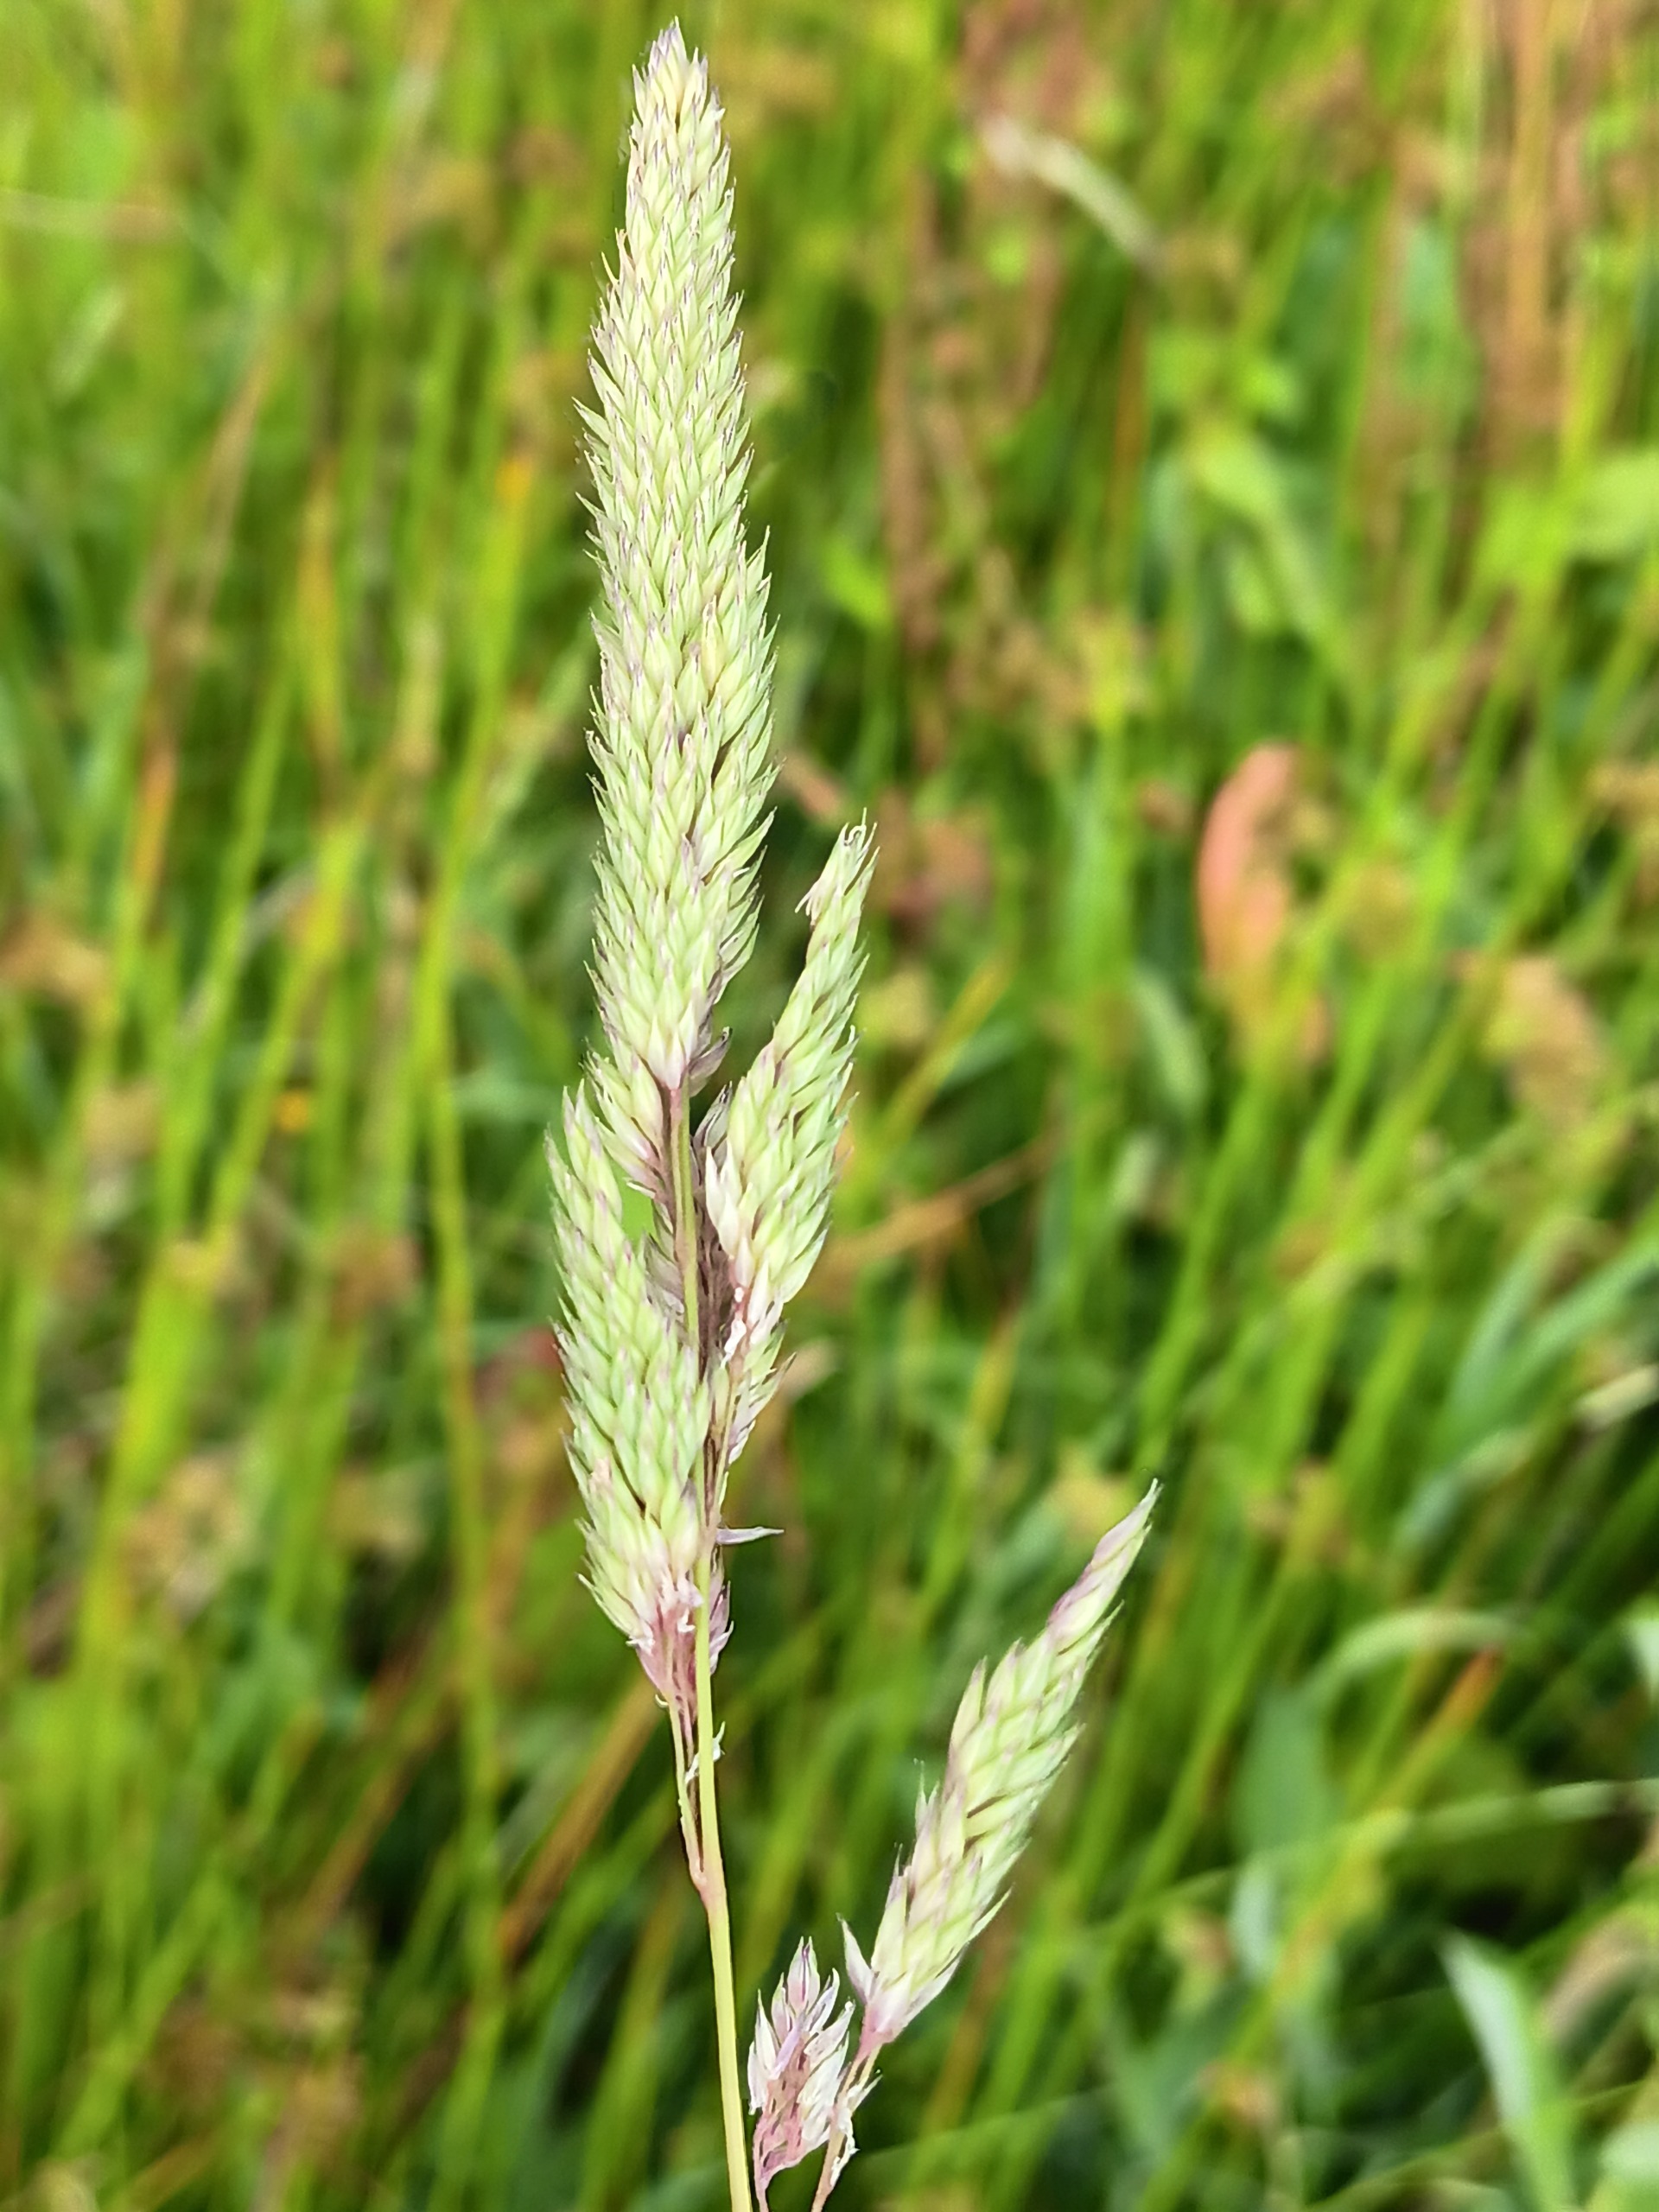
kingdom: Plantae
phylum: Tracheophyta
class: Liliopsida
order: Poales
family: Poaceae
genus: Phalaris
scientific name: Phalaris arundinacea
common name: Rørgræs
